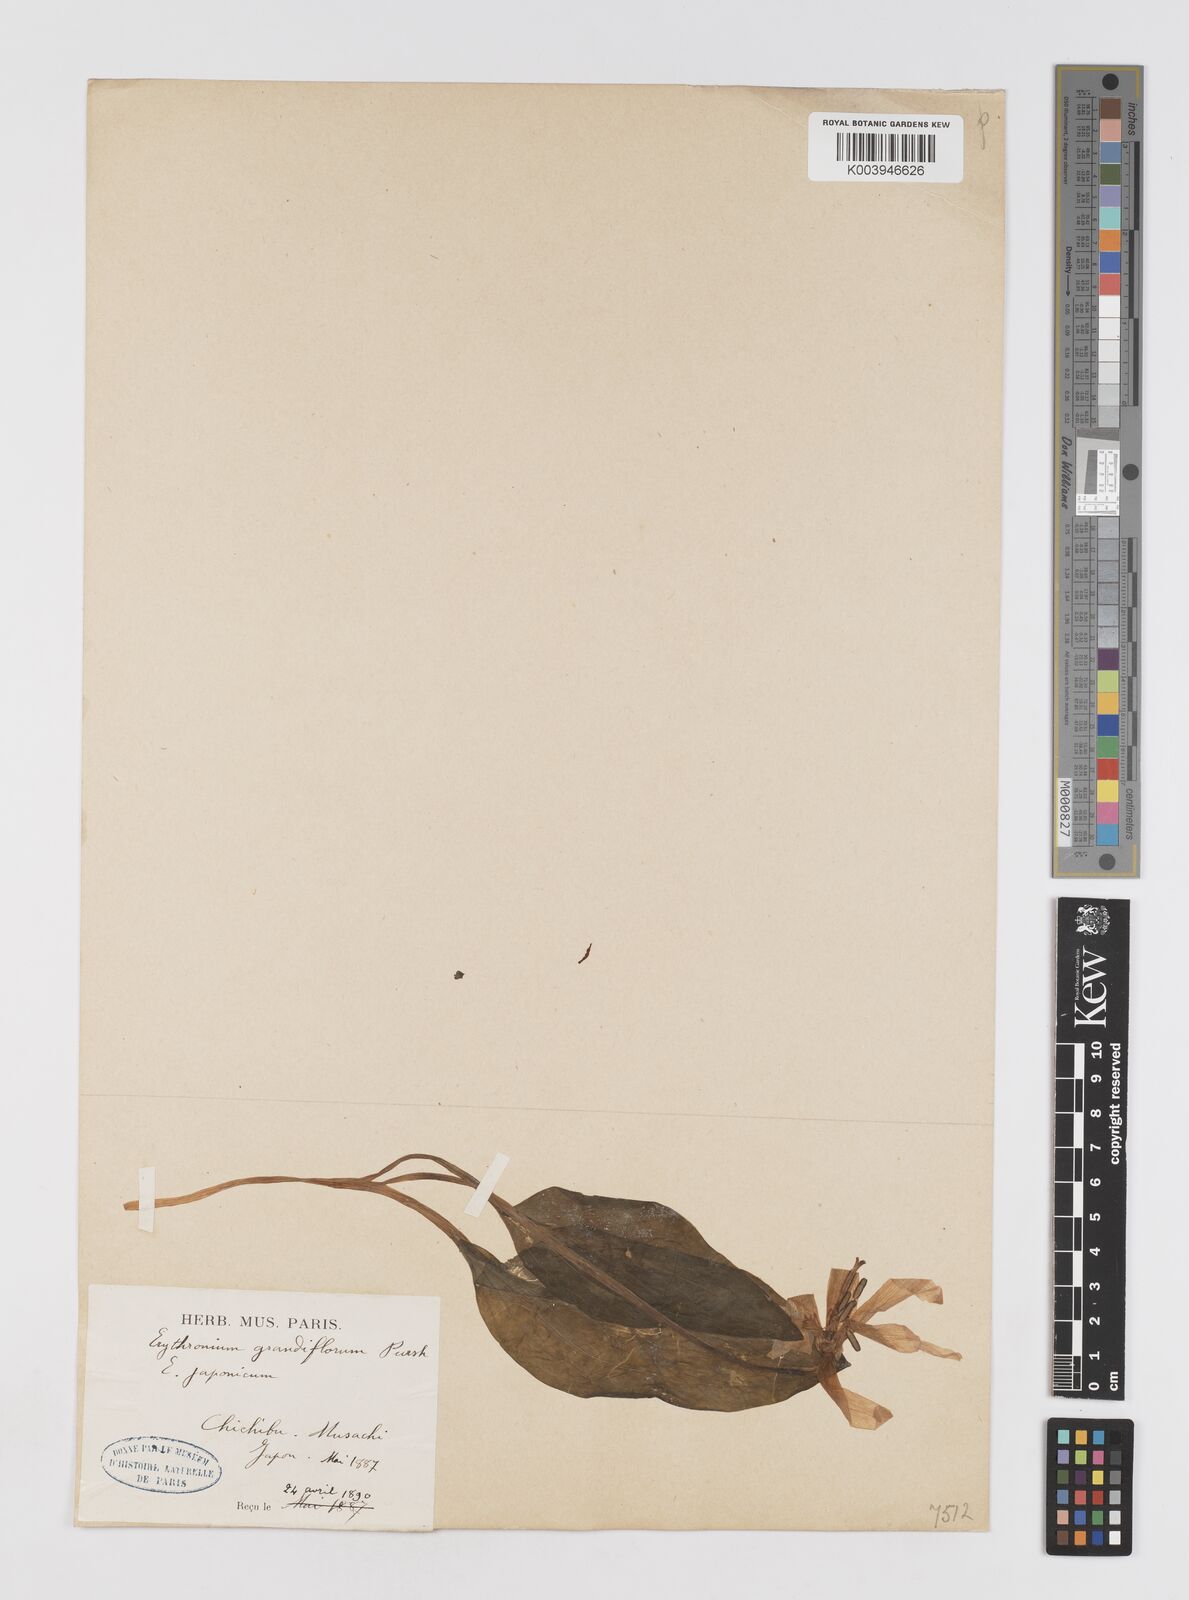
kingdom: Plantae
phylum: Tracheophyta
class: Liliopsida
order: Liliales
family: Liliaceae
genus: Erythronium
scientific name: Erythronium grandiflorum
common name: Avalanche-lily
